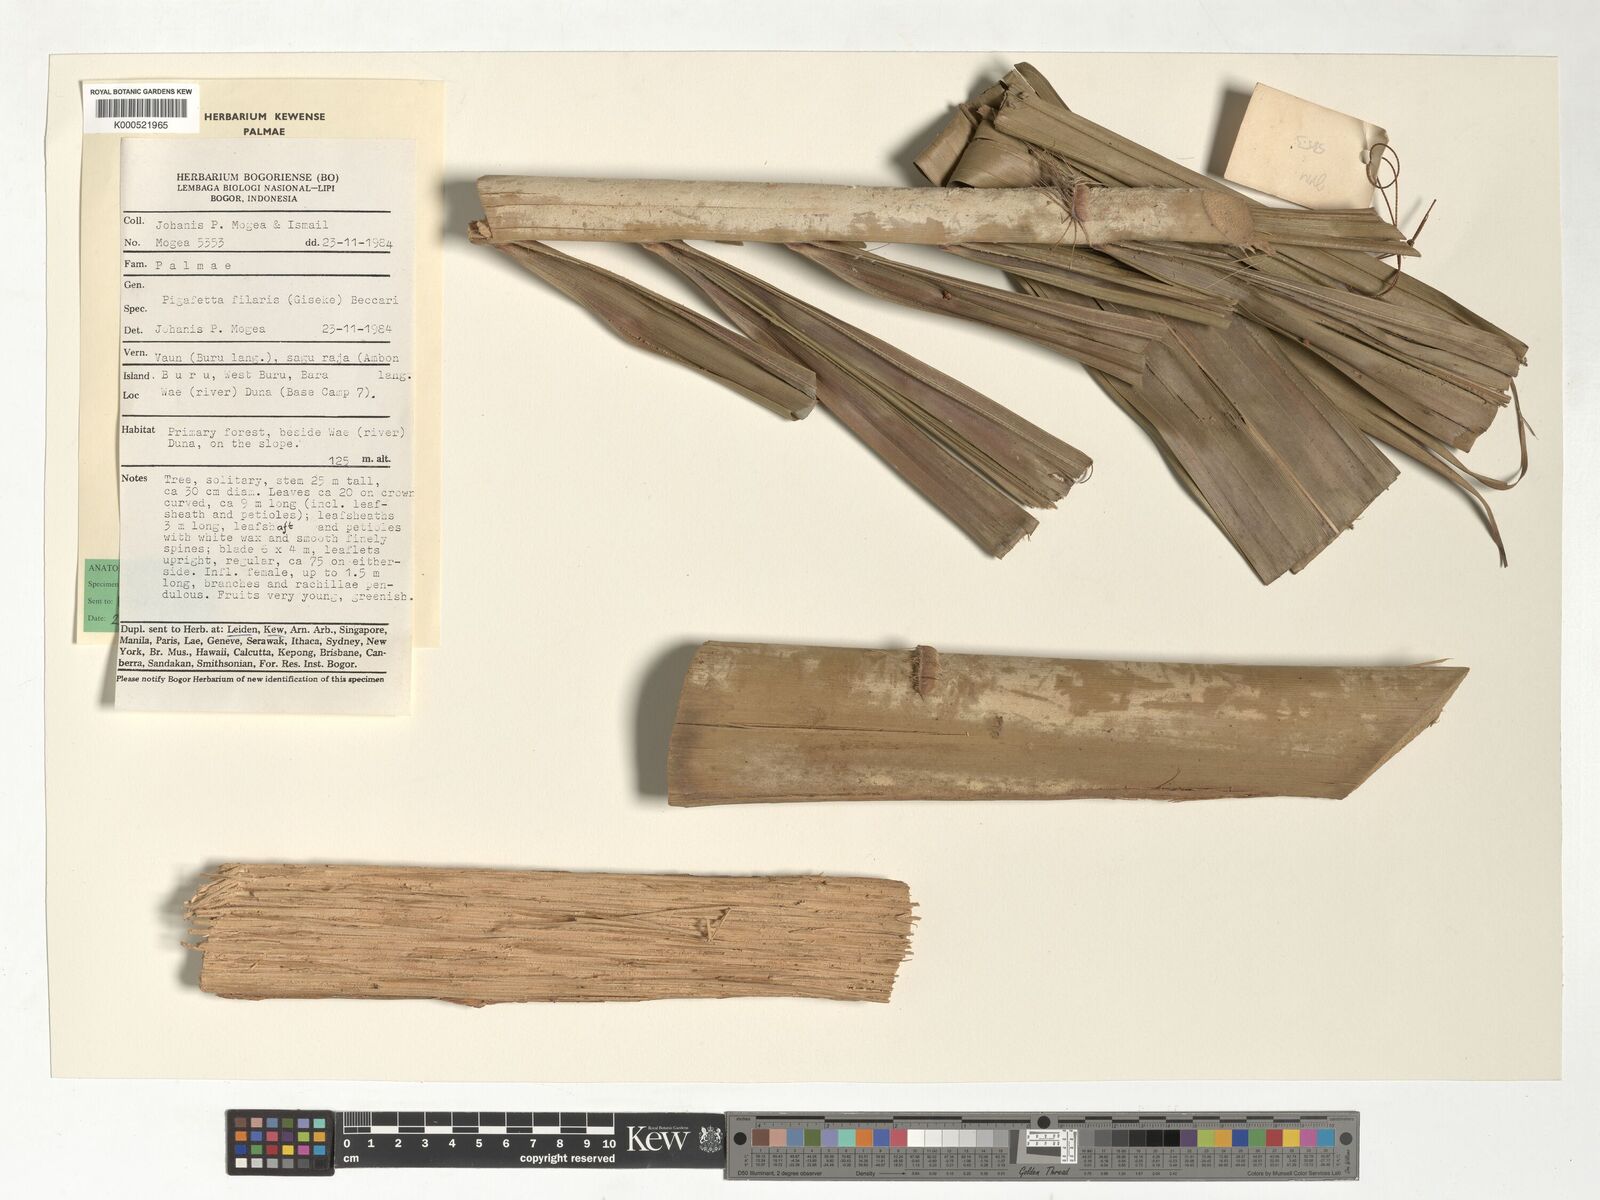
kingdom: Plantae
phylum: Tracheophyta
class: Liliopsida
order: Arecales
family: Arecaceae
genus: Pigafetta
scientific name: Pigafetta filaris
